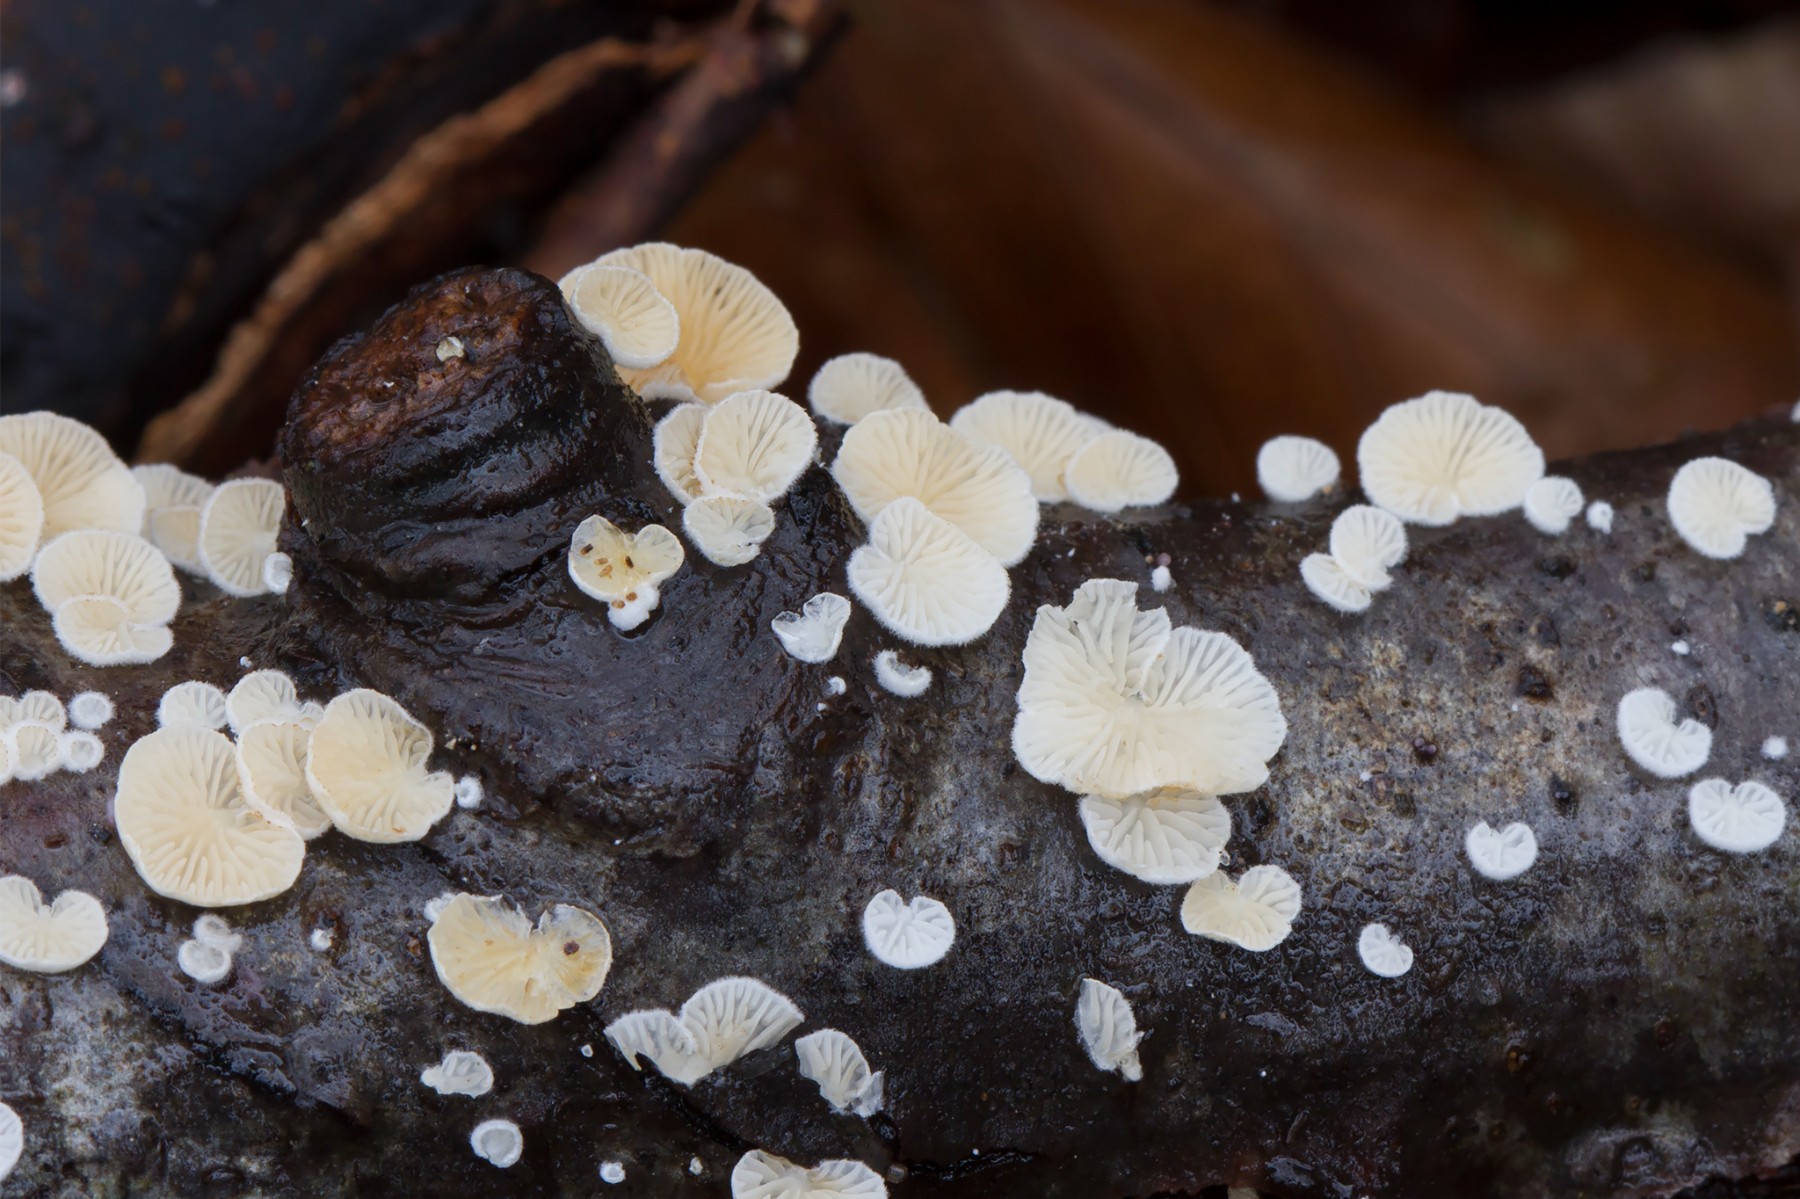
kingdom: Fungi
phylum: Basidiomycota
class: Agaricomycetes
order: Agaricales
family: Crepidotaceae
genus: Crepidotus
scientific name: Crepidotus epibryus
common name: førne-muslingesvamp
